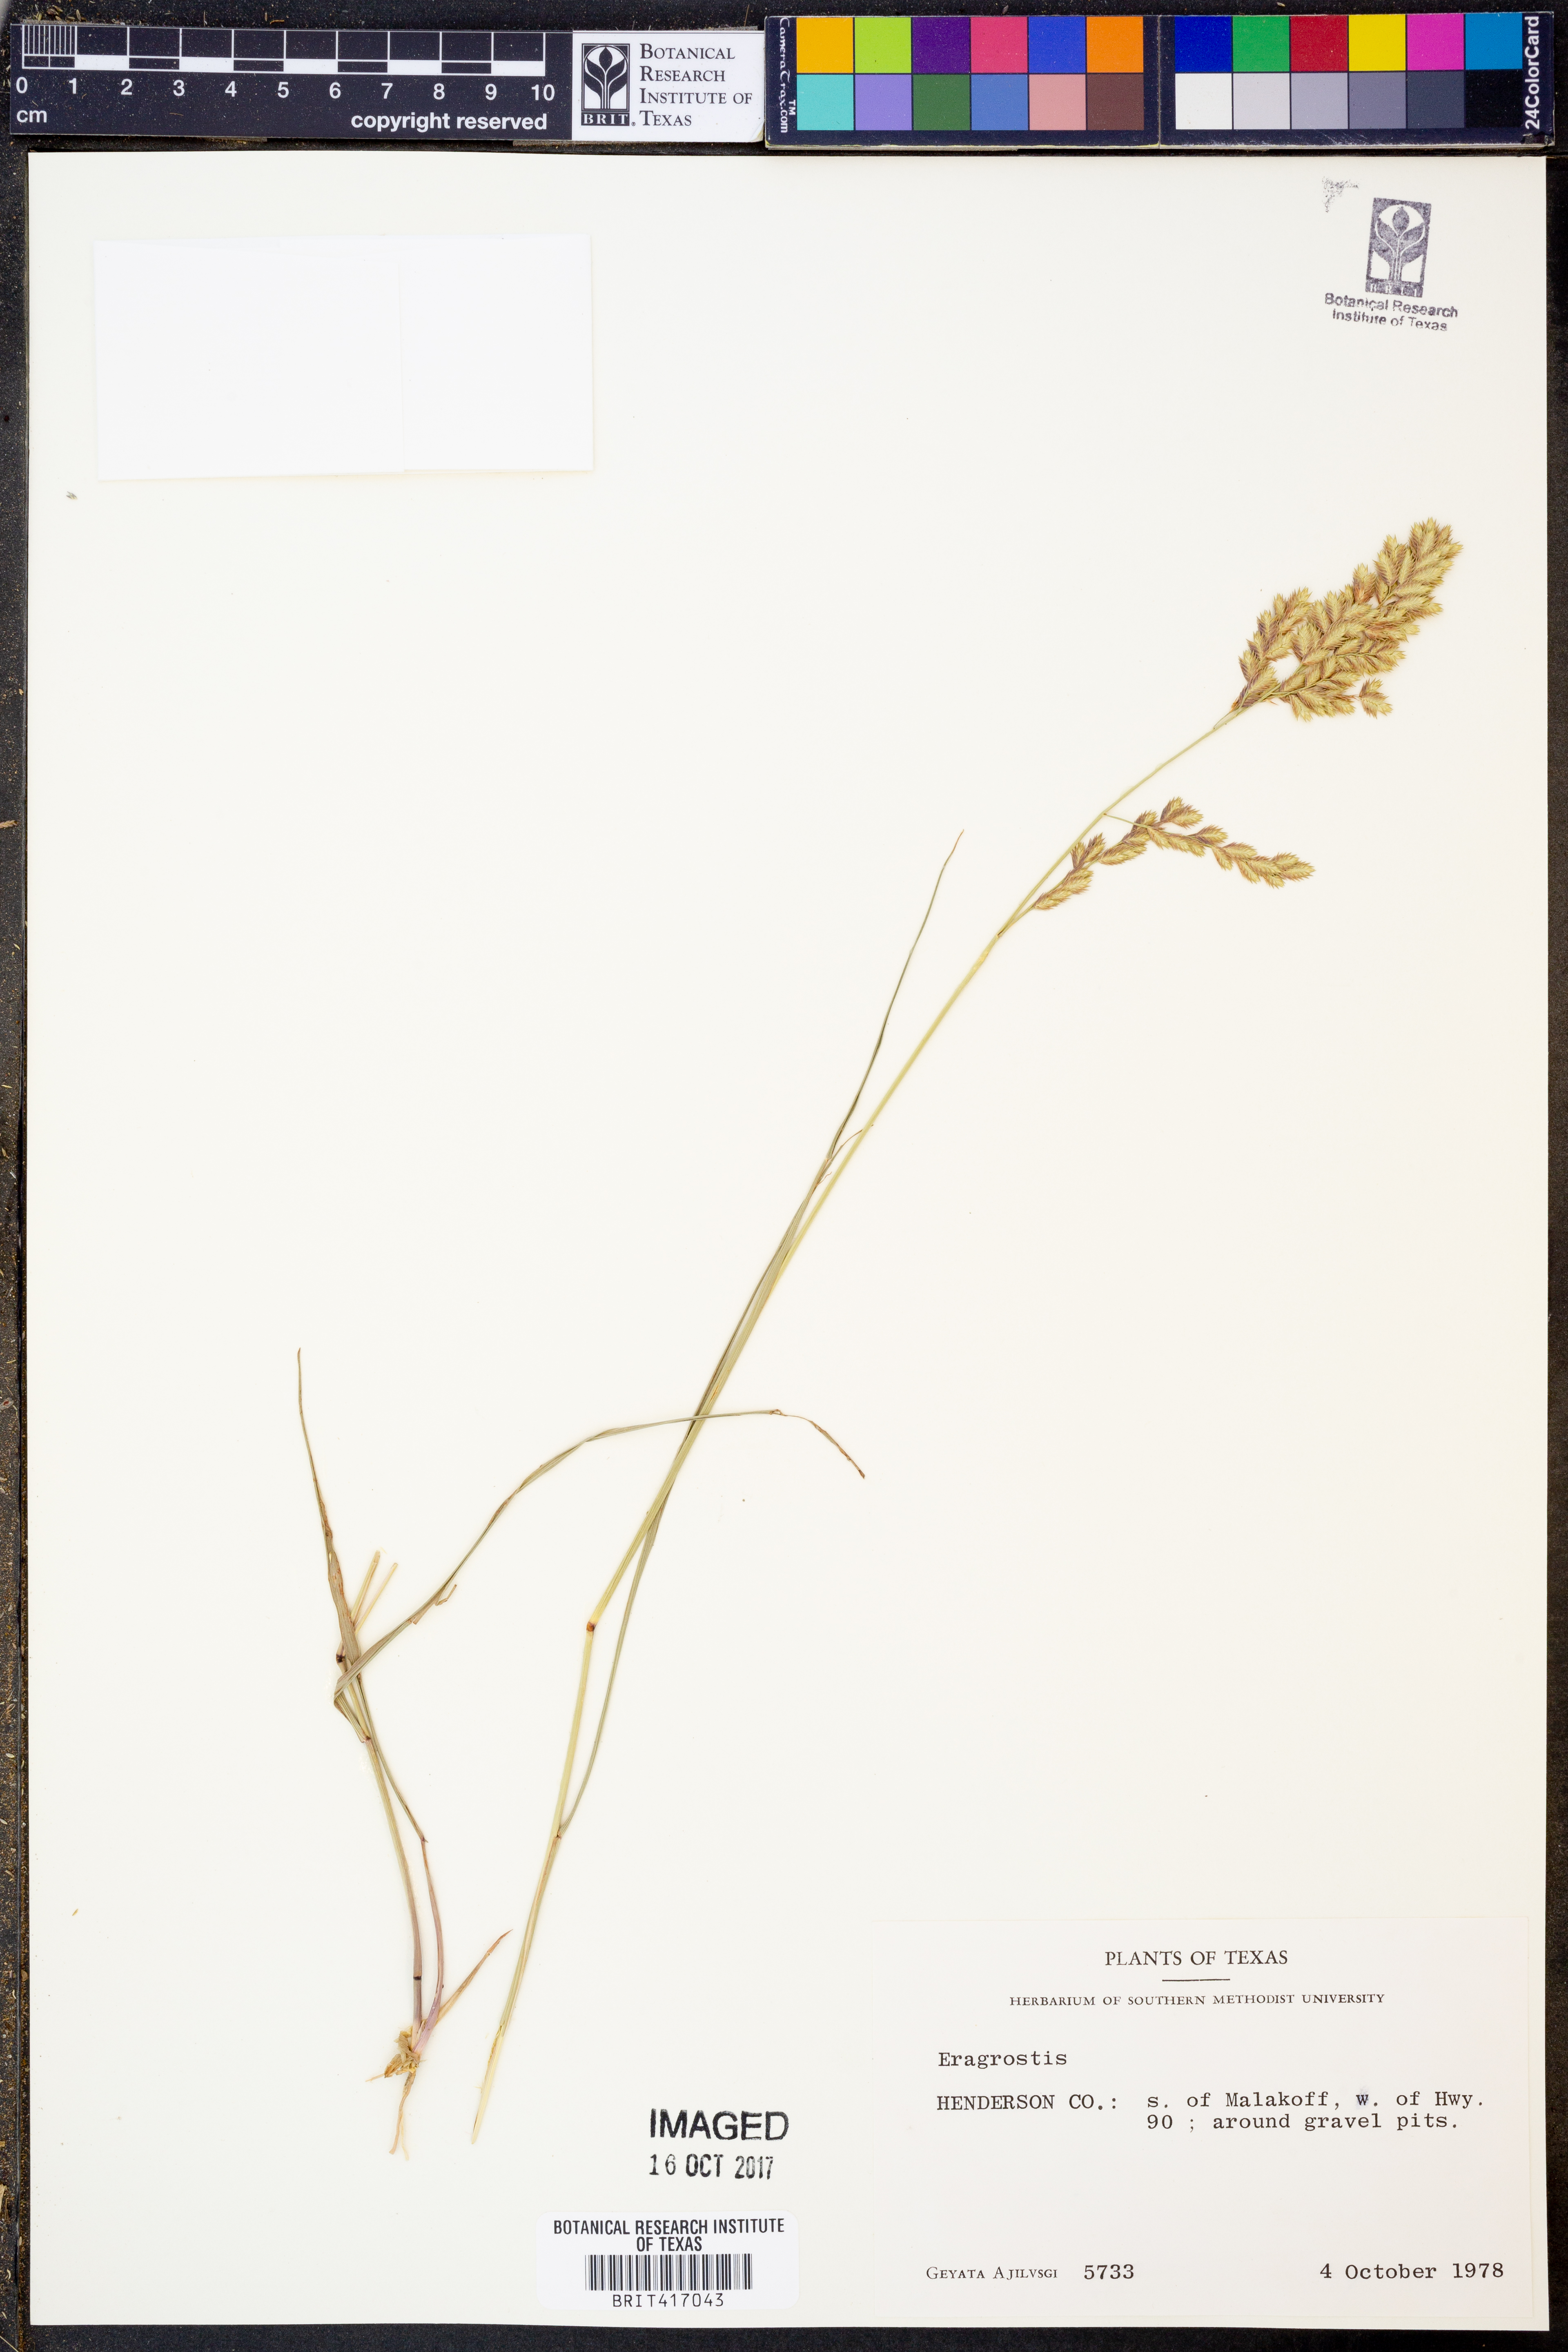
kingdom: Plantae
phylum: Tracheophyta
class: Liliopsida
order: Poales
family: Poaceae
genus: Eragrostis
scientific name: Eragrostis
